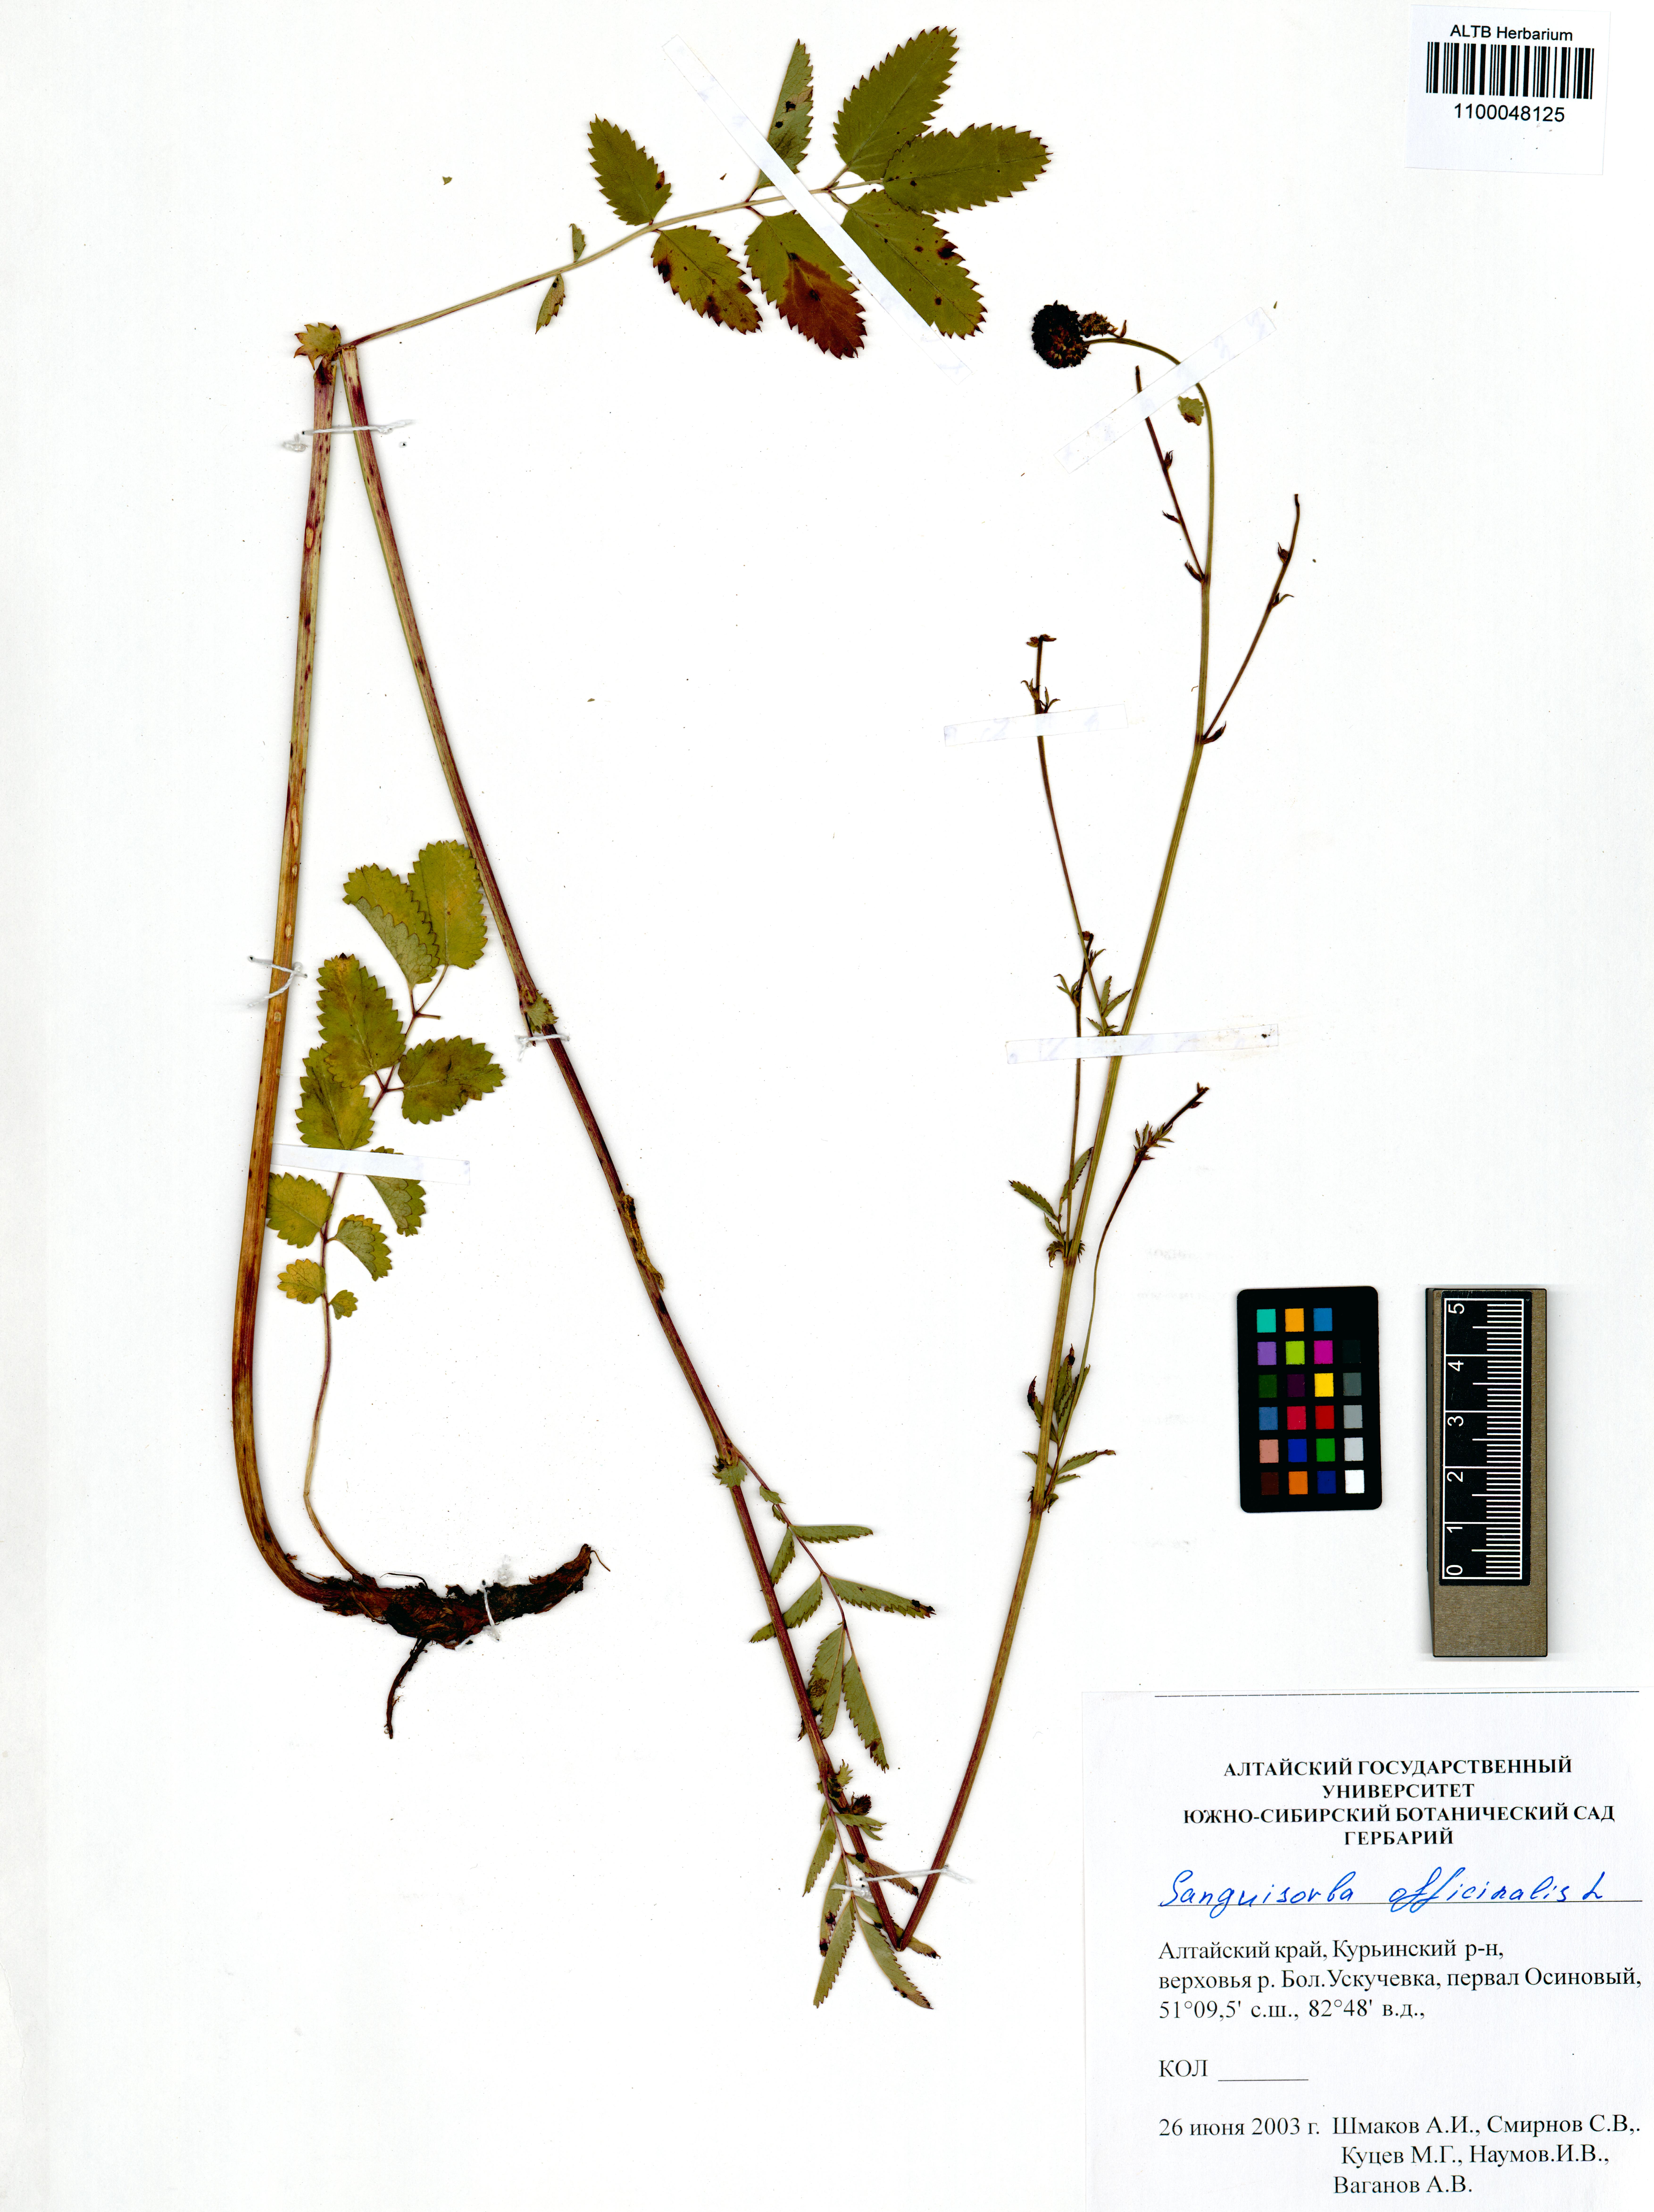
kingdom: Plantae
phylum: Tracheophyta
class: Magnoliopsida
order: Rosales
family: Rosaceae
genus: Sanguisorba
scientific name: Sanguisorba officinalis
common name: Great burnet
